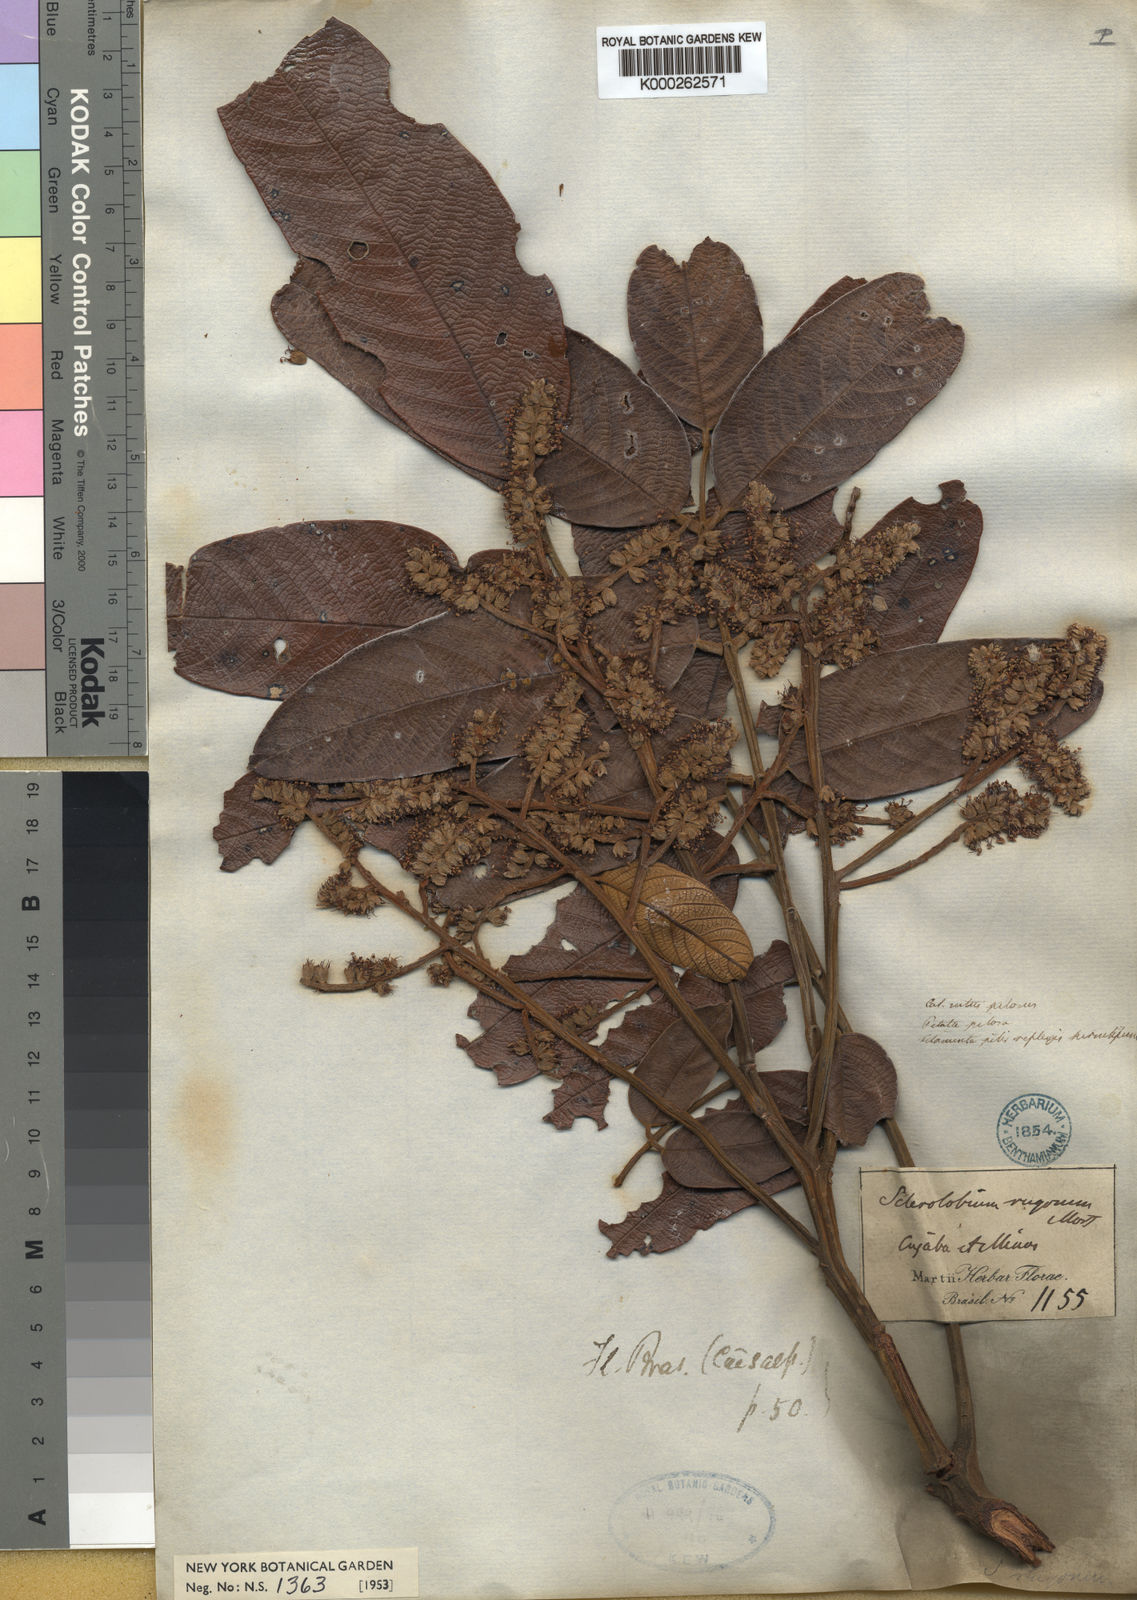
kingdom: Plantae
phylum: Tracheophyta
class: Magnoliopsida
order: Fabales
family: Fabaceae
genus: Tachigali
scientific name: Tachigali rugosa
